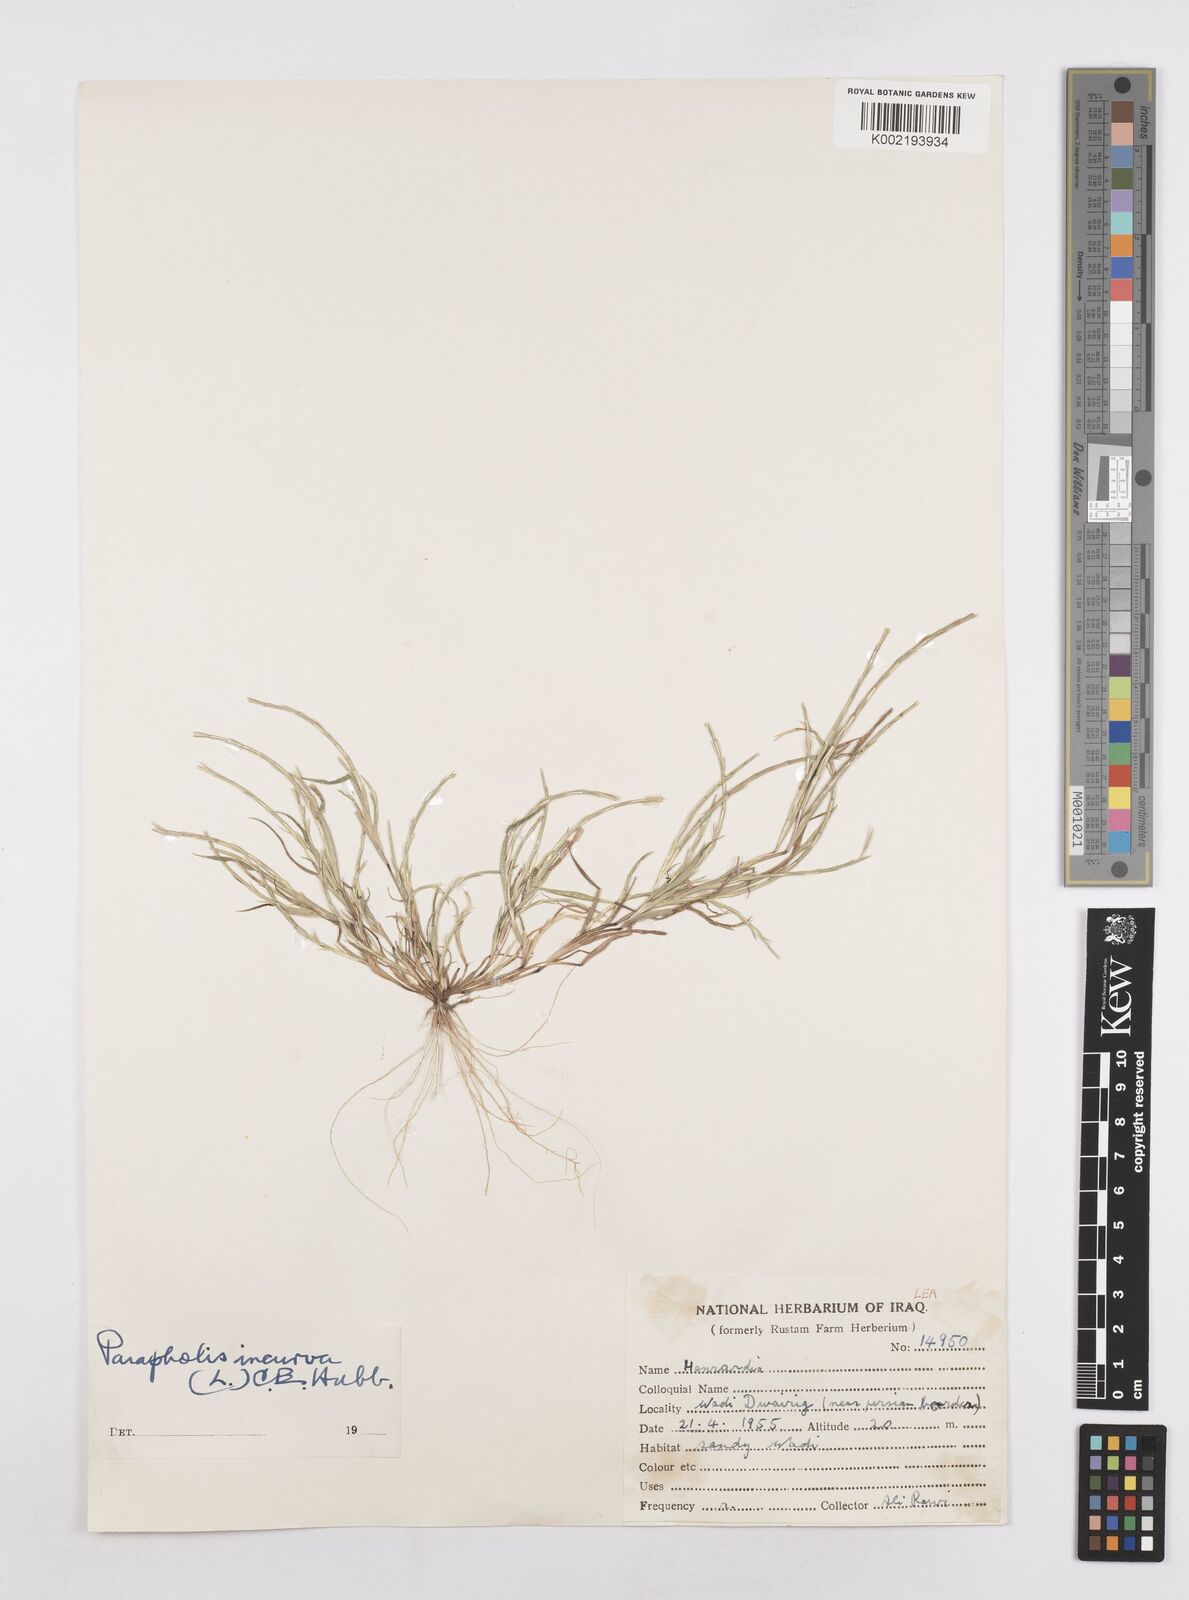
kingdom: Plantae
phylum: Tracheophyta
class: Liliopsida
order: Poales
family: Poaceae
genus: Parapholis
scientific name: Parapholis incurva
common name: Curved sicklegrass
